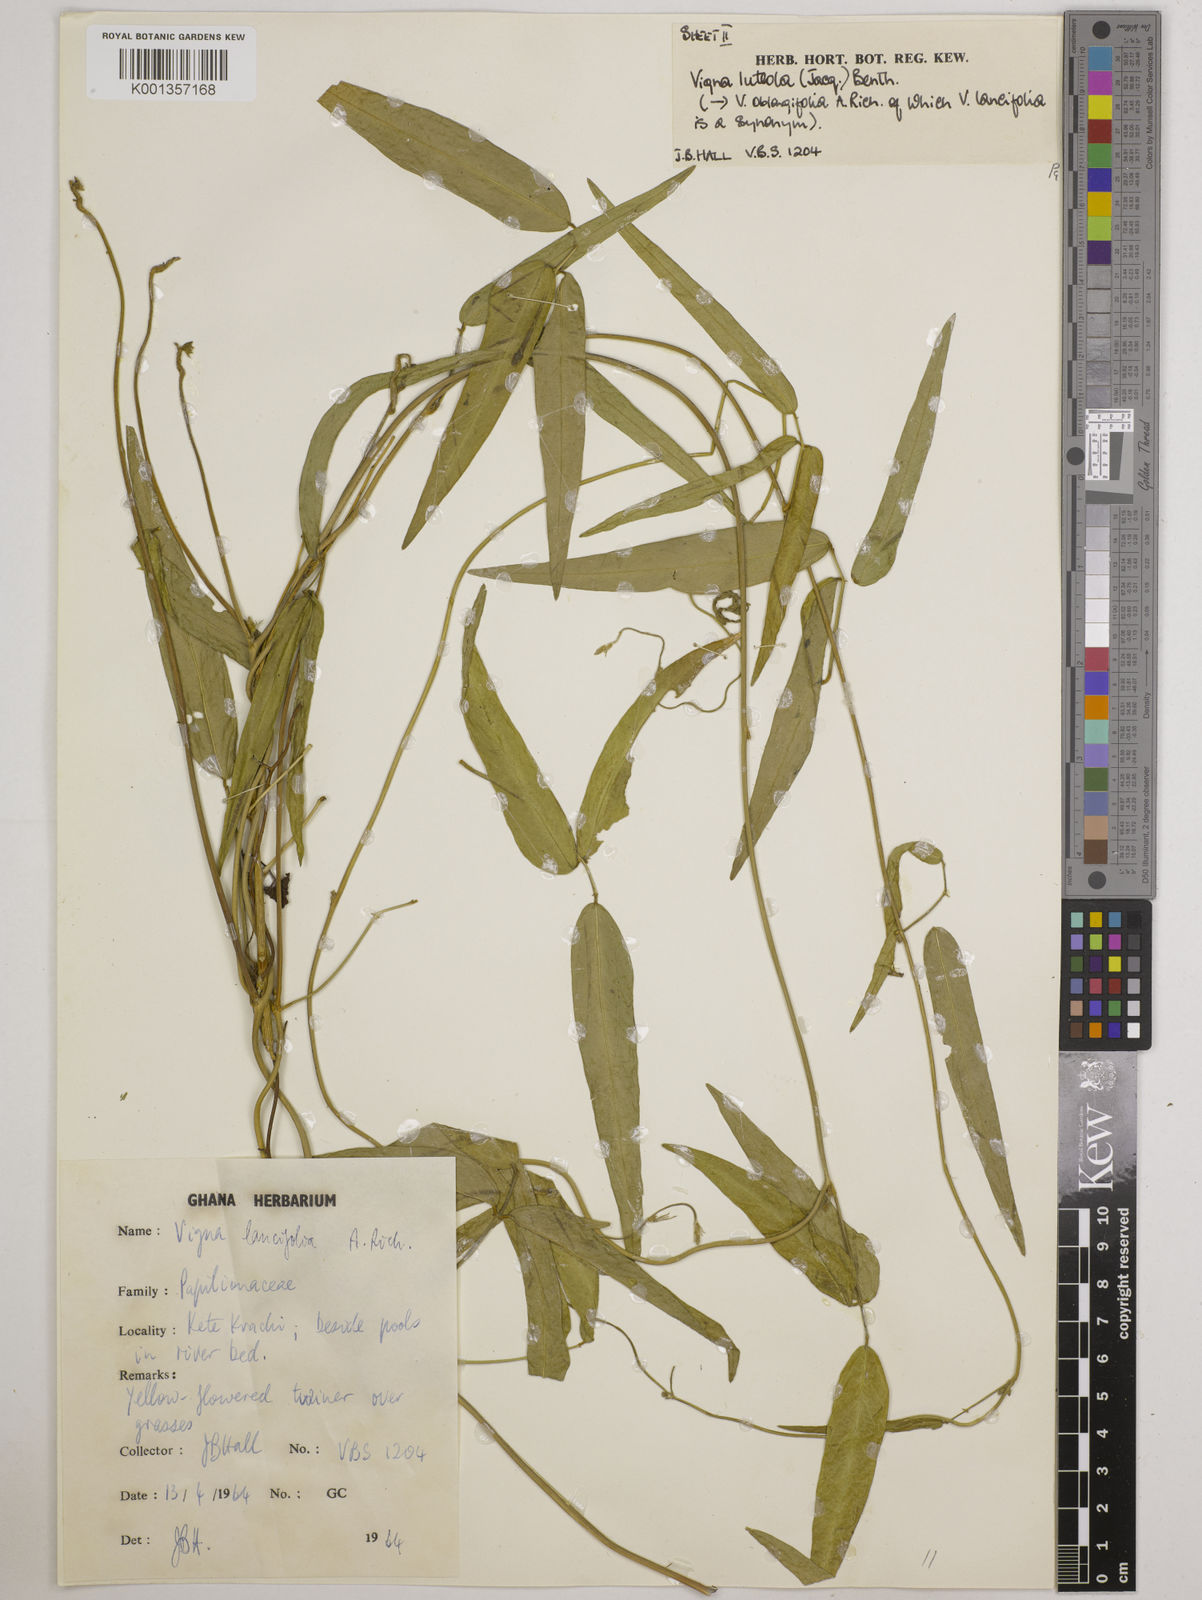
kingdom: Plantae
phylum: Tracheophyta
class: Magnoliopsida
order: Fabales
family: Fabaceae
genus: Vigna
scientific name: Vigna oblongifolia
